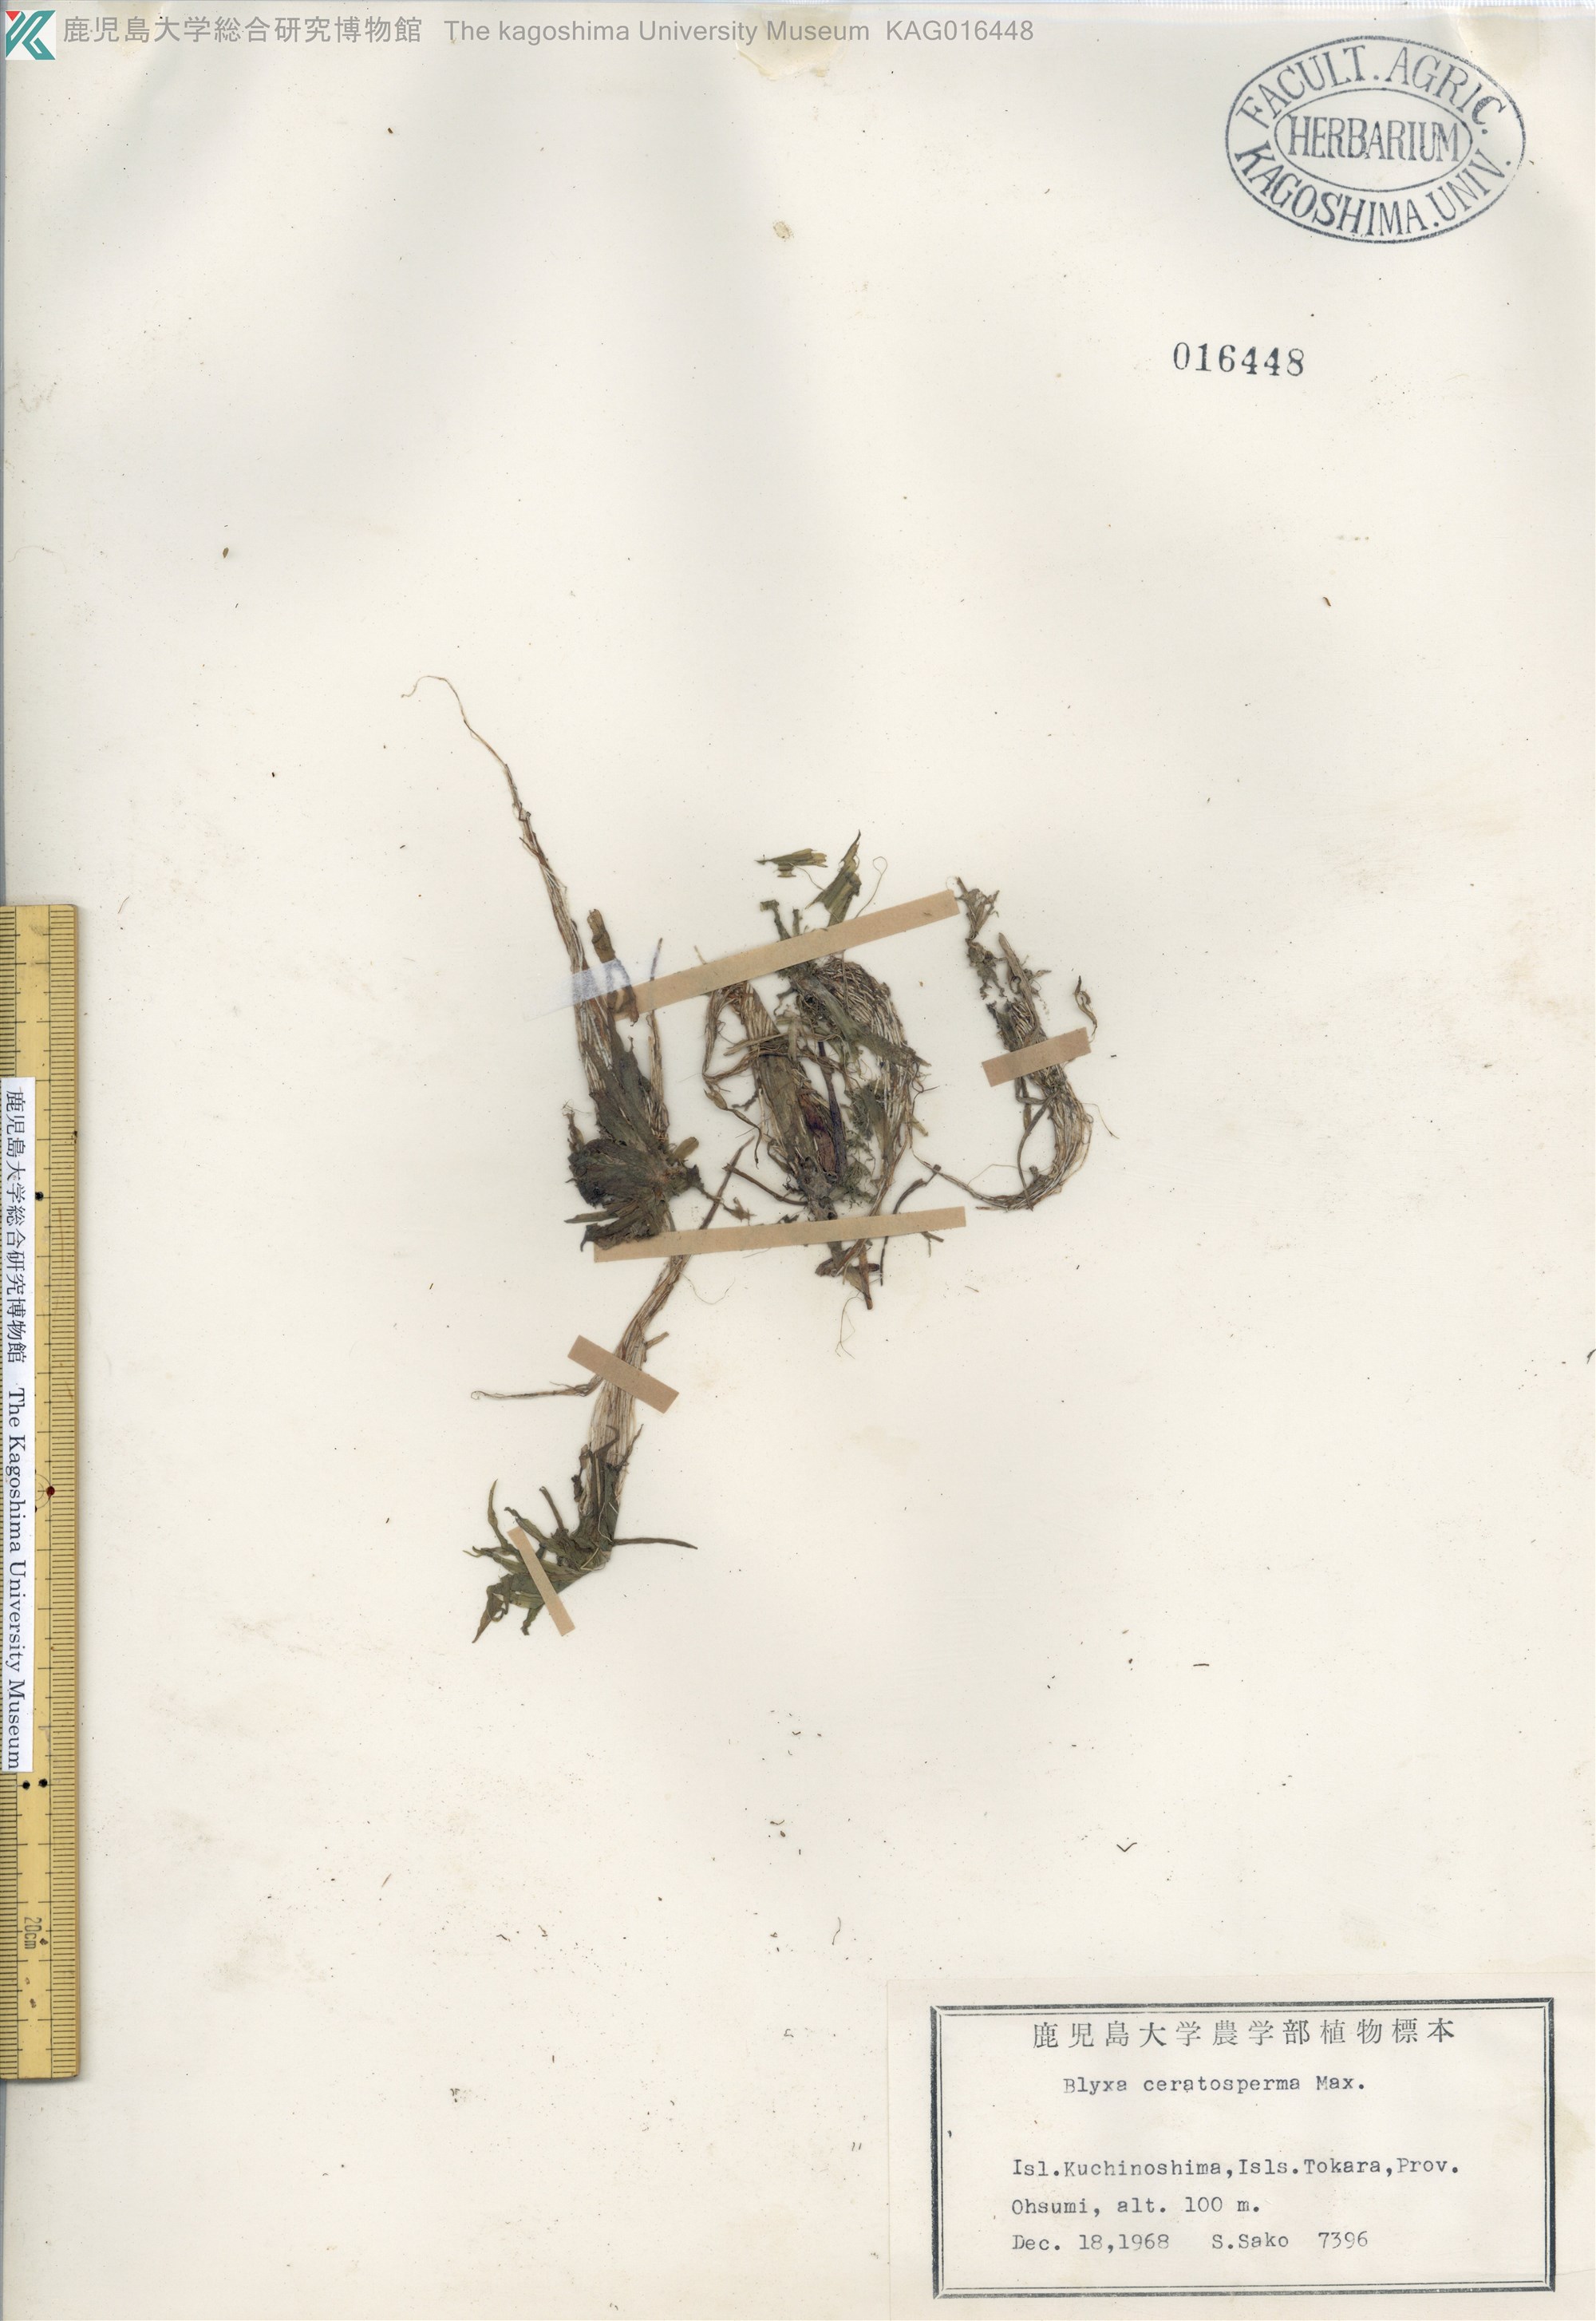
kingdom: Plantae
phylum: Tracheophyta
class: Liliopsida
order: Alismatales
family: Hydrocharitaceae
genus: Blyxa
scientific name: Blyxa echinosperma
